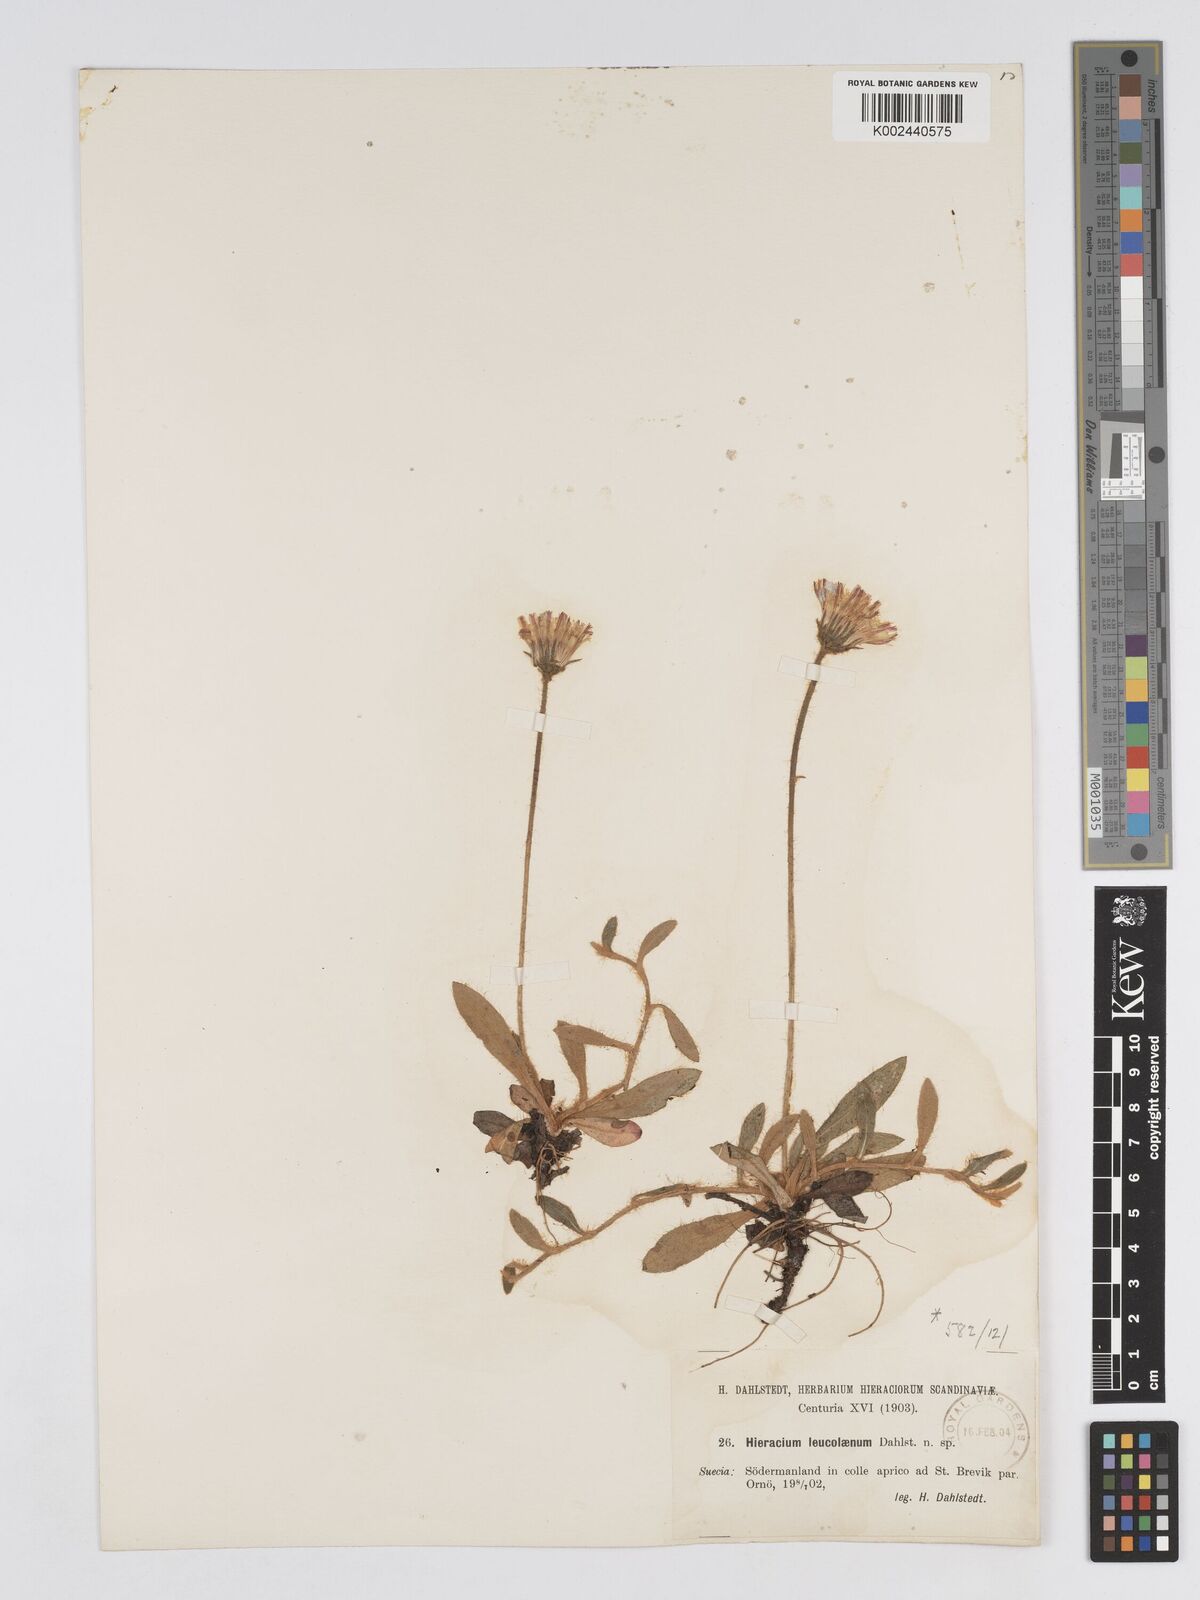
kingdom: Plantae
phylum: Tracheophyta
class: Magnoliopsida
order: Asterales
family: Asteraceae
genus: Pilosella
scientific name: Pilosella longisquama
